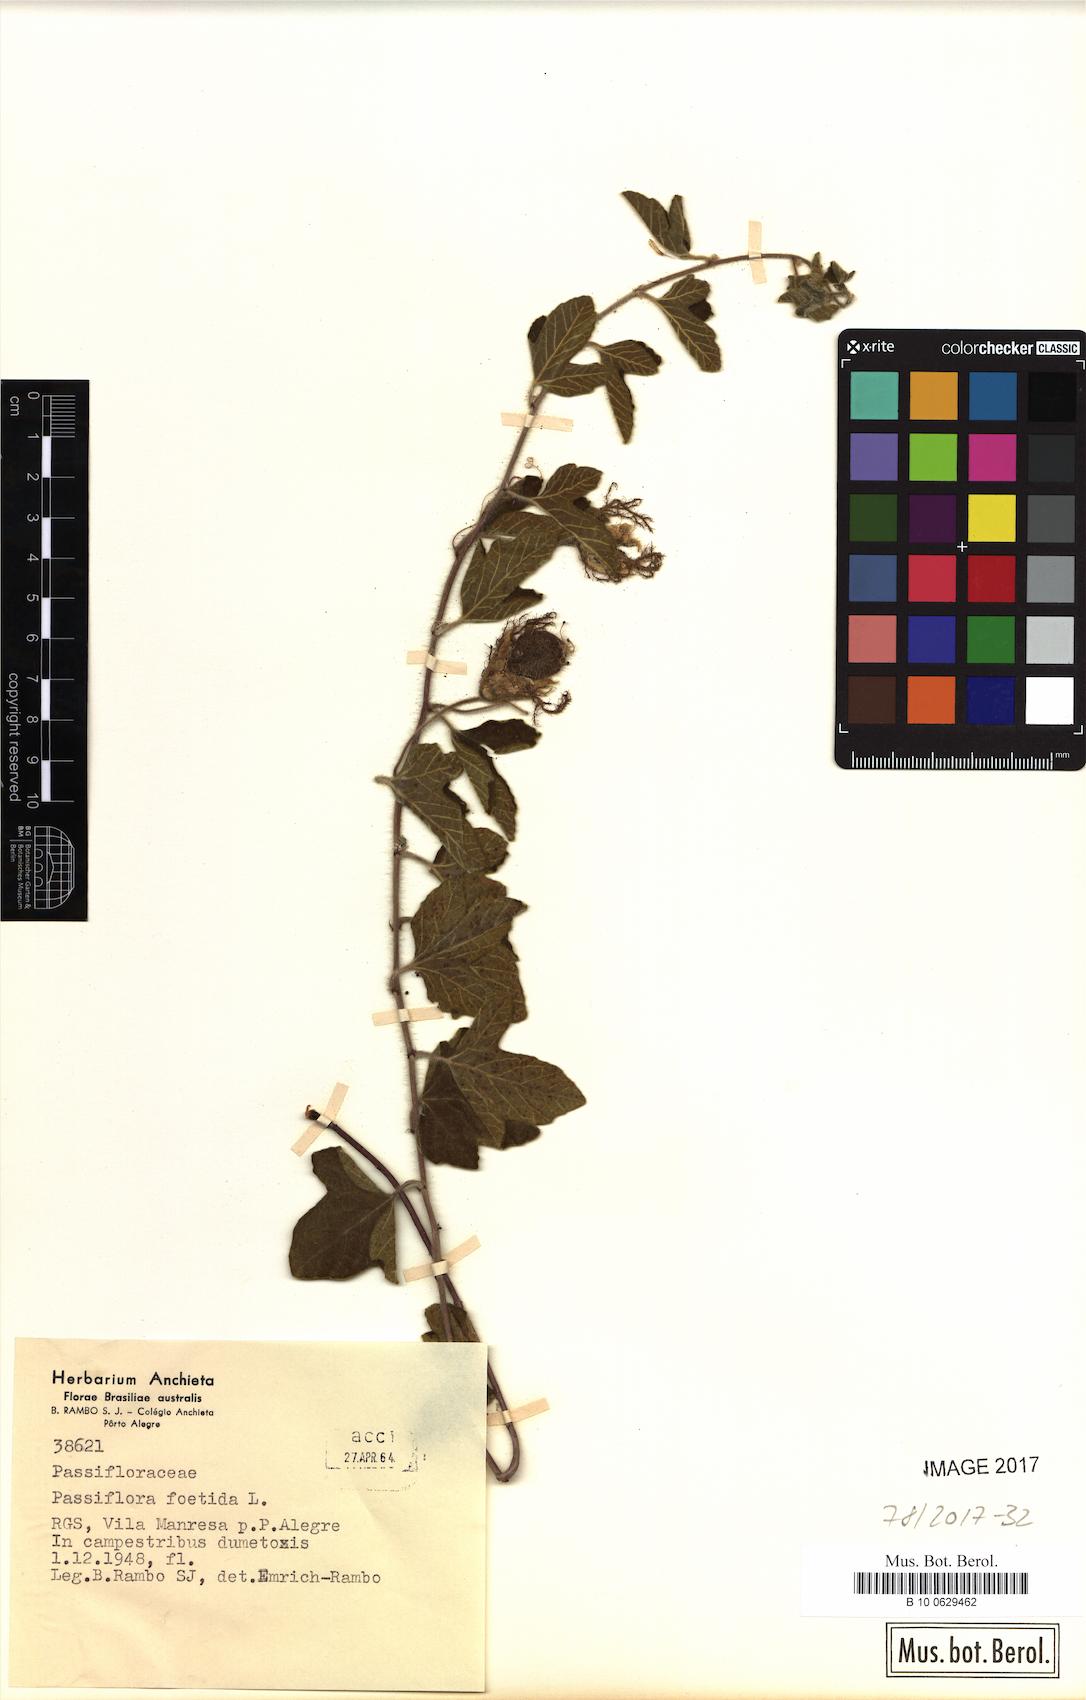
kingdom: Plantae
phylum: Tracheophyta
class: Magnoliopsida
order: Malpighiales
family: Passifloraceae
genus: Passiflora
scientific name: Passiflora foetida
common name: Fetid passionflower
